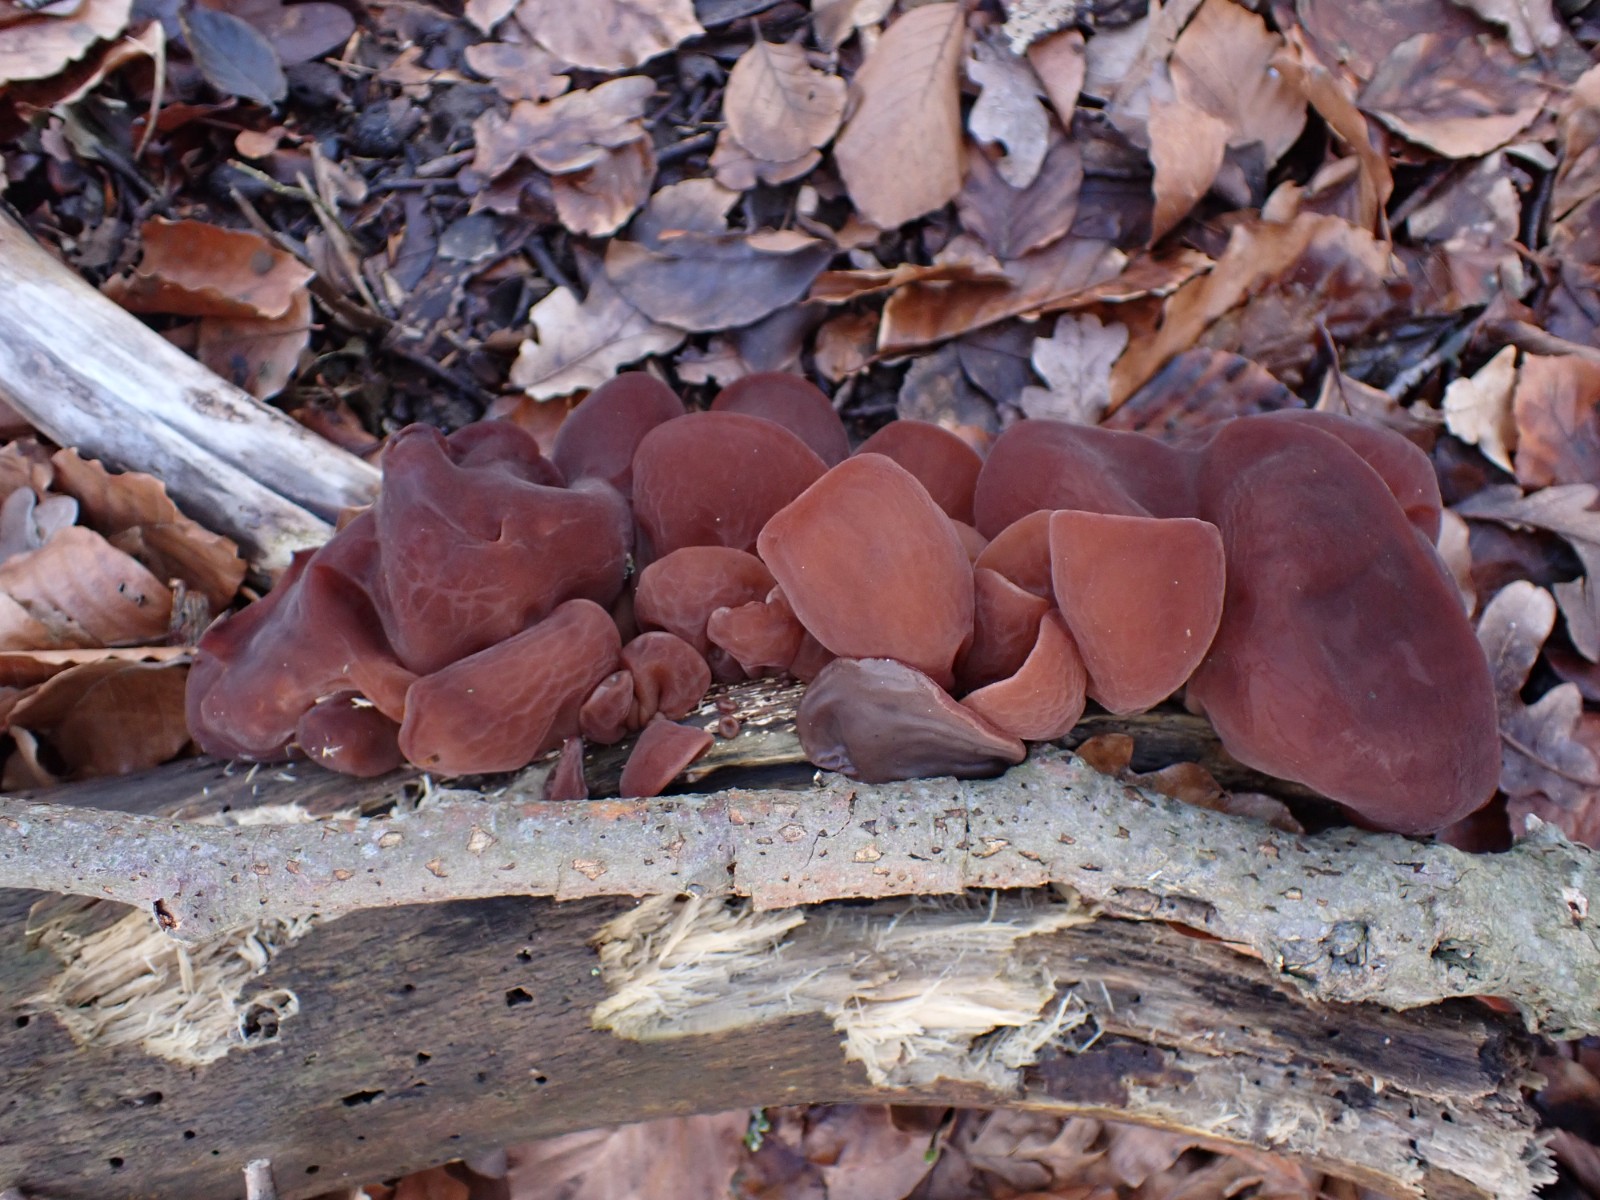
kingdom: Fungi
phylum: Basidiomycota
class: Agaricomycetes
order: Auriculariales
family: Auriculariaceae
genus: Auricularia
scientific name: Auricularia auricula-judae
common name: almindelig judasøre
